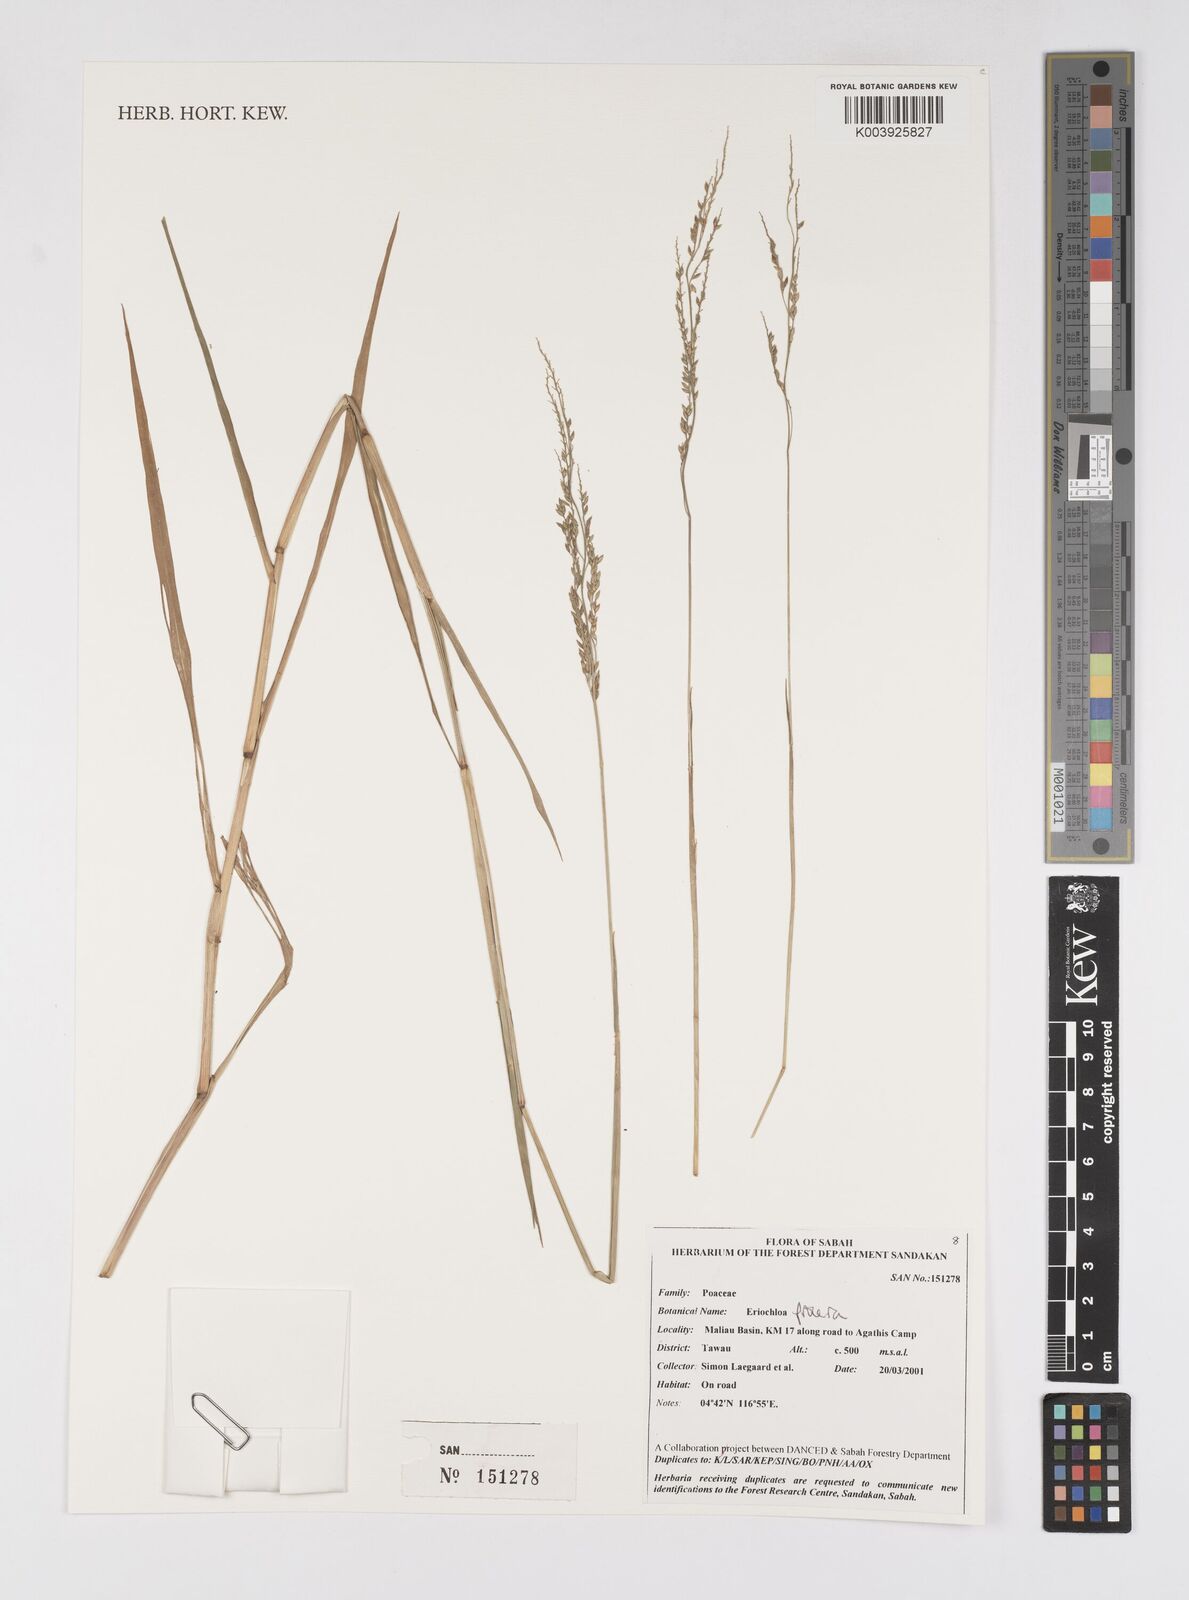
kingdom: Plantae
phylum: Tracheophyta
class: Liliopsida
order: Poales
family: Poaceae
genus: Eriochloa
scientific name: Eriochloa procera
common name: Spring grass
